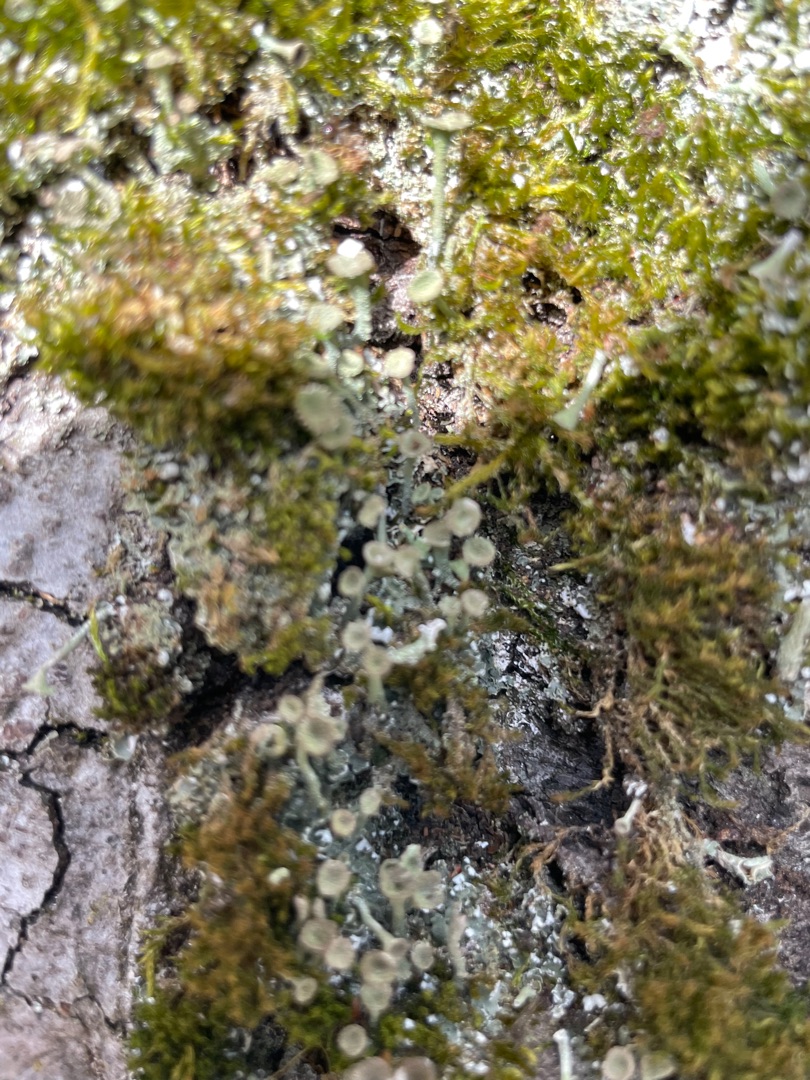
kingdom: Fungi
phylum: Ascomycota
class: Lecanoromycetes
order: Lecanorales
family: Cladoniaceae
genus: Cladonia
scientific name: Cladonia fimbriata
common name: Bleggrøn bægerlav
